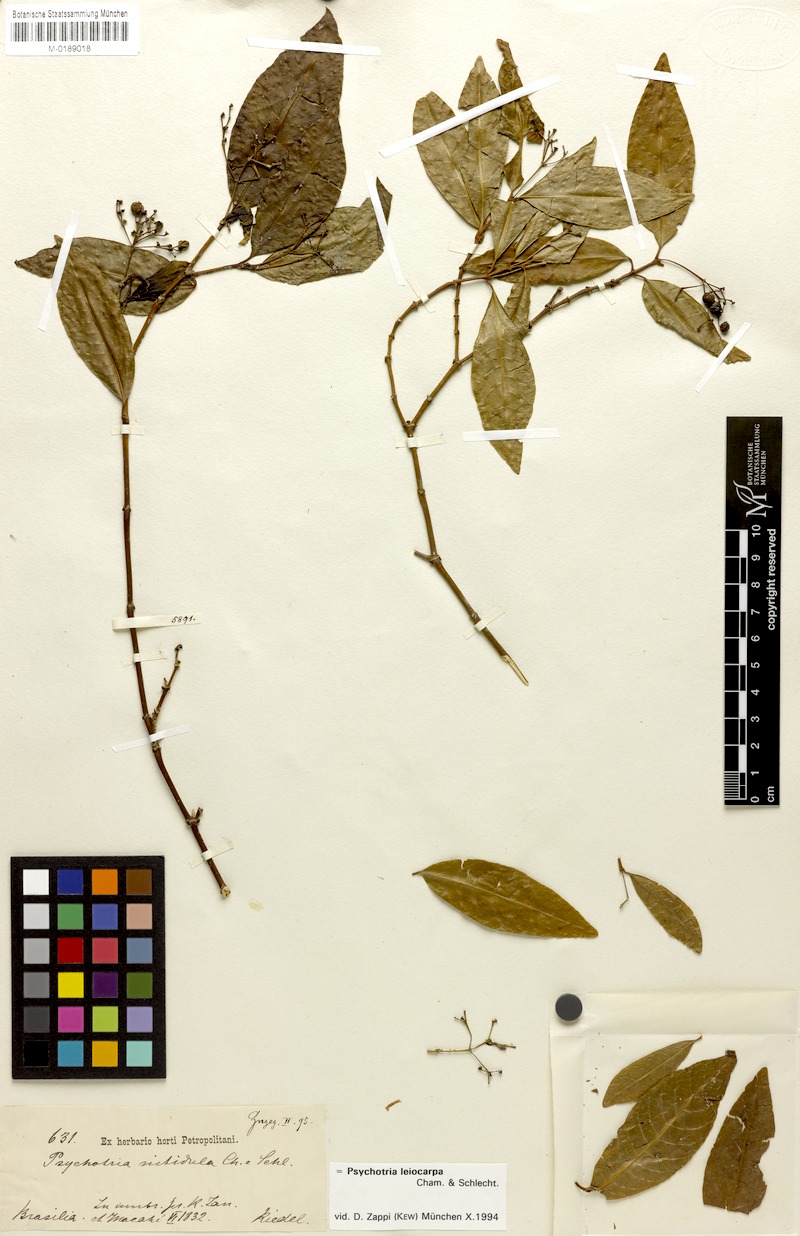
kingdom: Plantae
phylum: Tracheophyta
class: Magnoliopsida
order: Gentianales
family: Rubiaceae
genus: Psychotria
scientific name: Psychotria leiocarpa
